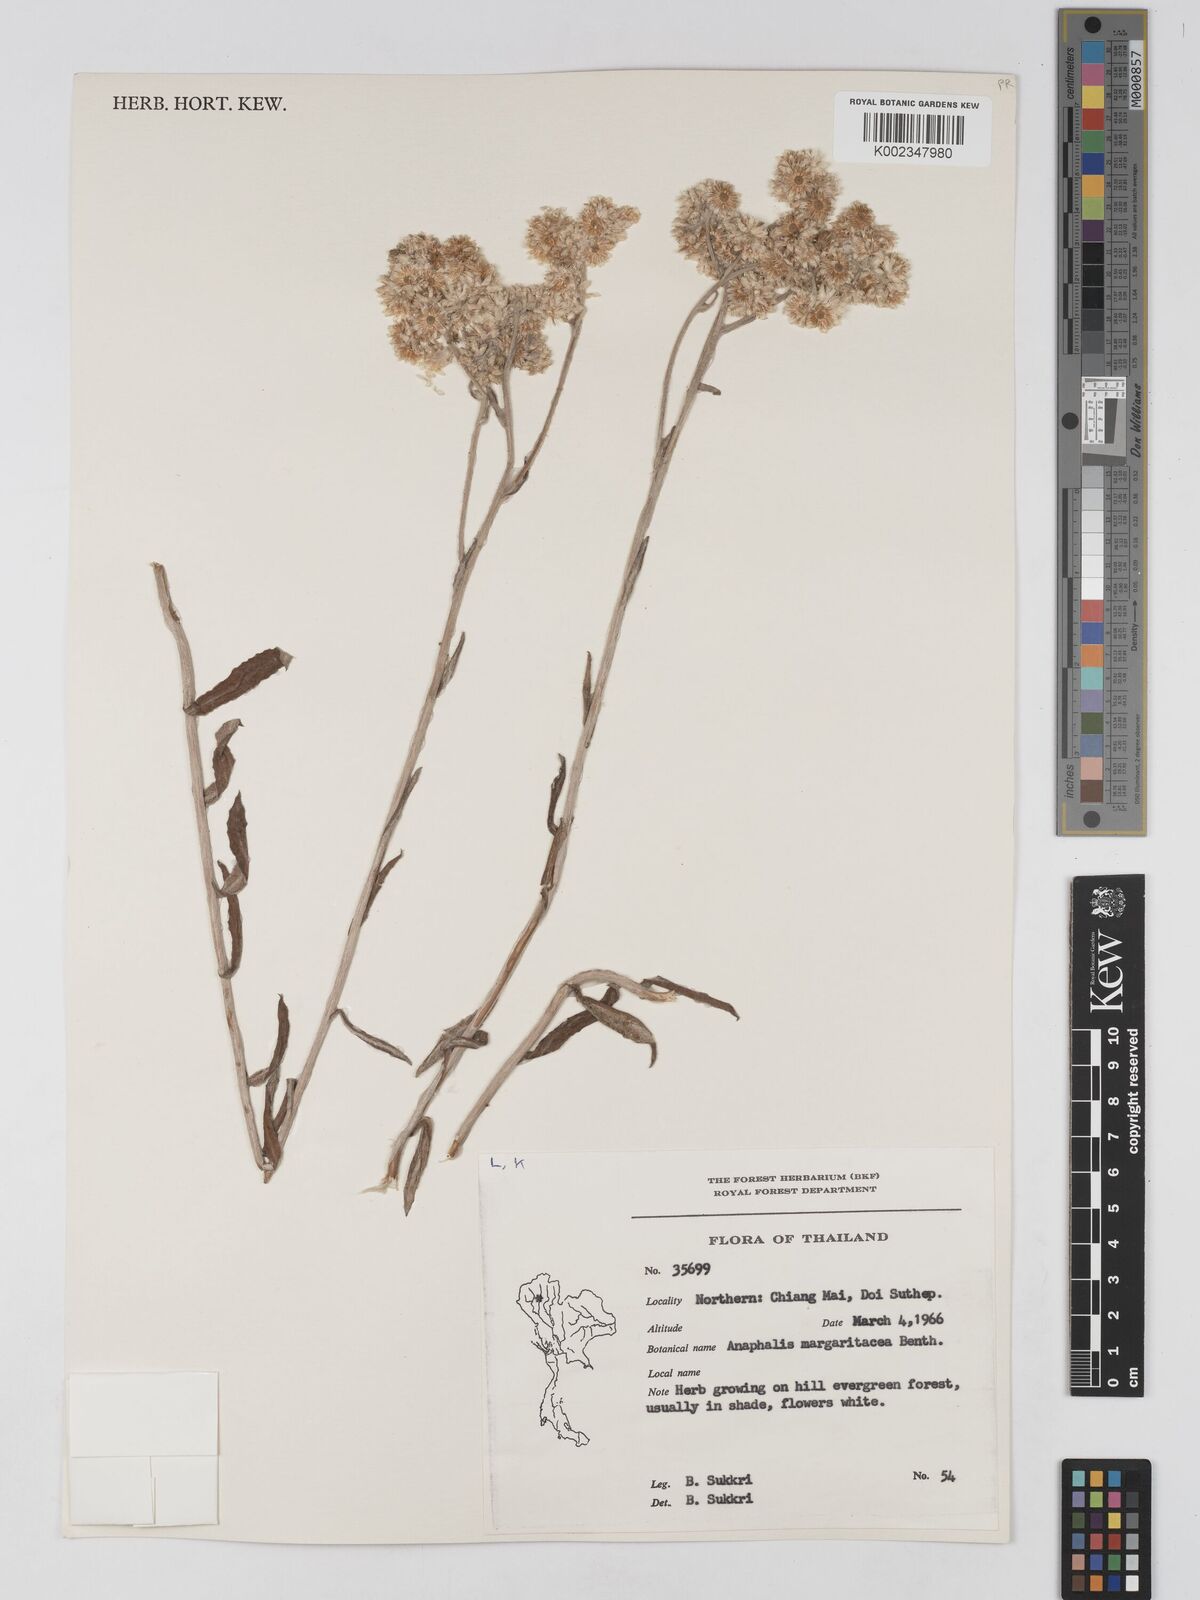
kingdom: Plantae
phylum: Tracheophyta
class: Magnoliopsida
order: Asterales
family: Asteraceae
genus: Anaphalis
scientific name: Anaphalis margaritacea
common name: Pearly everlasting
